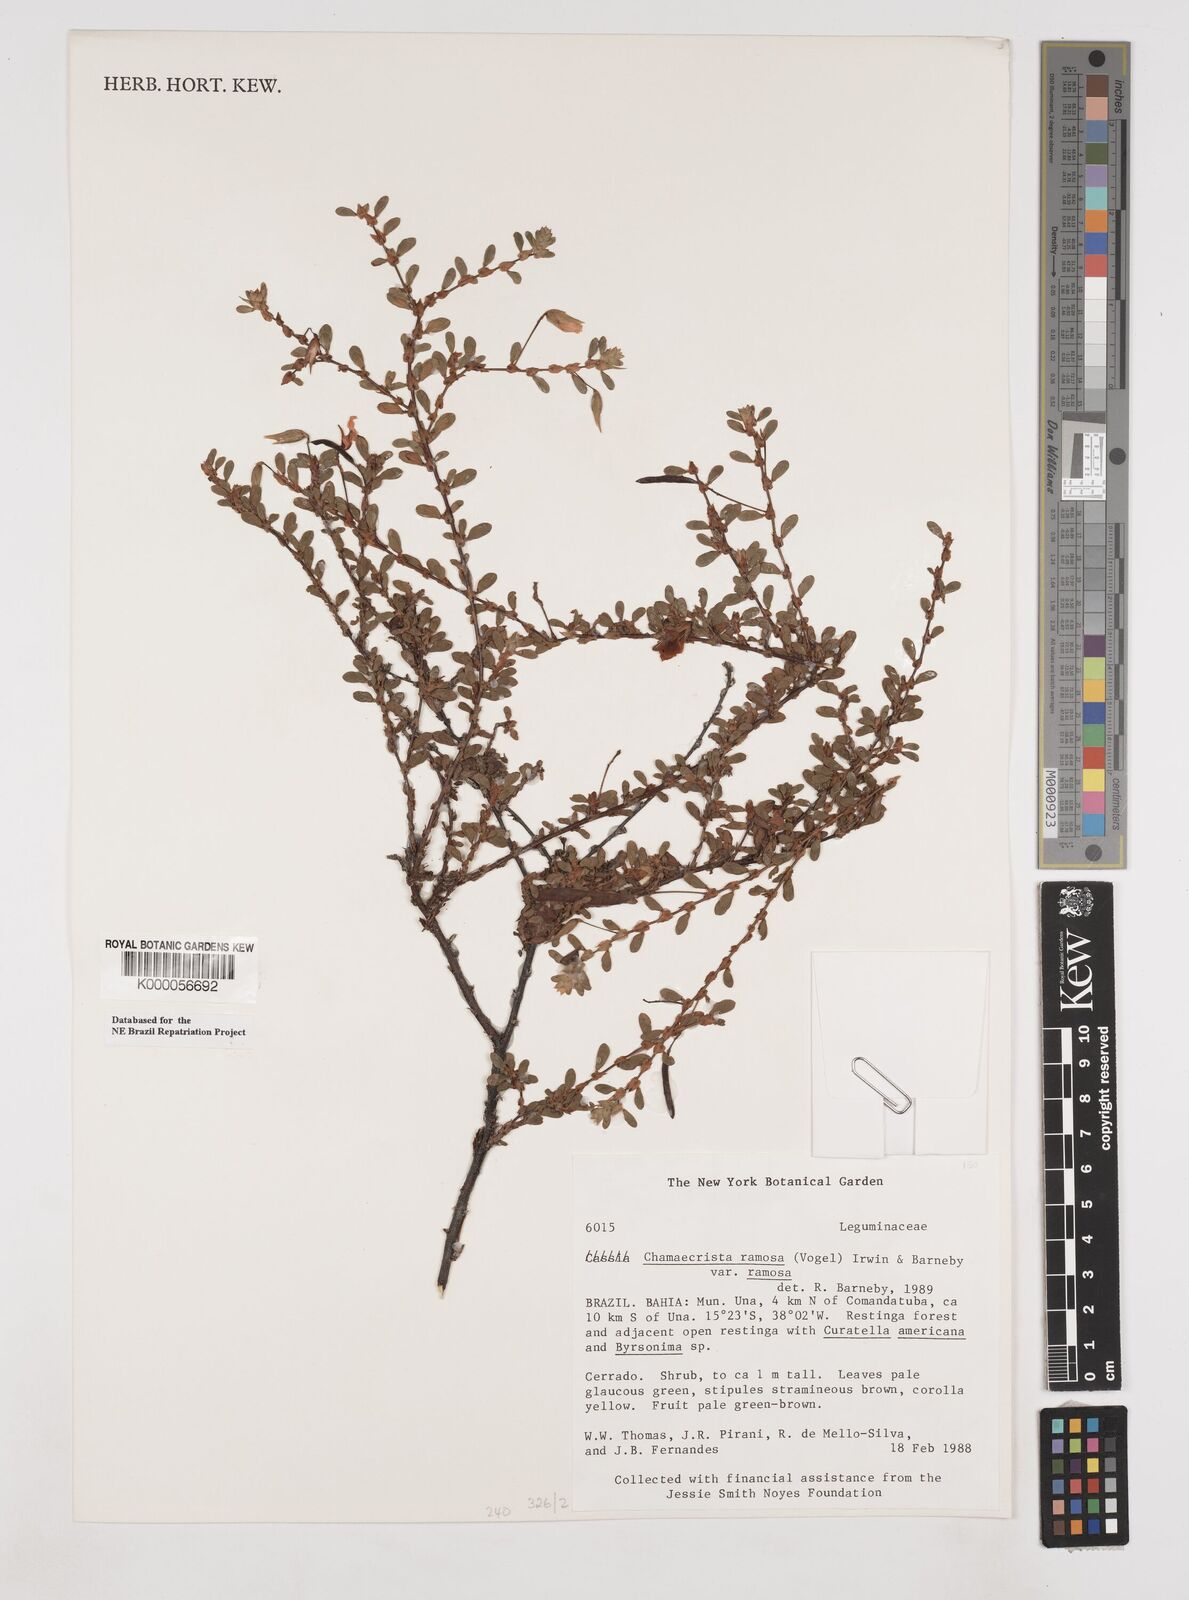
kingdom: Plantae
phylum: Tracheophyta
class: Magnoliopsida
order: Fabales
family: Fabaceae
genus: Chamaecrista
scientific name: Chamaecrista ramosa
